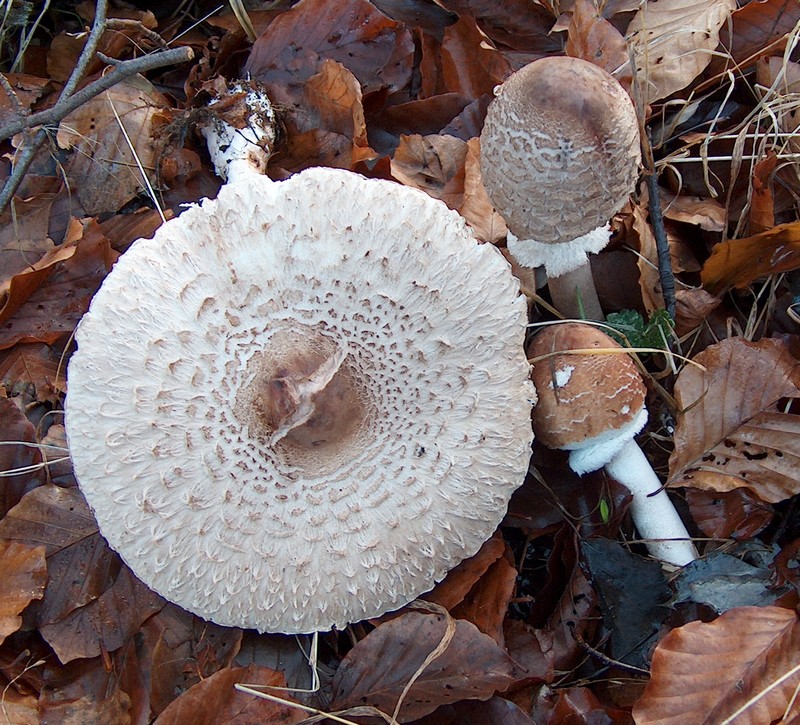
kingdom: Fungi
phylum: Basidiomycota
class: Agaricomycetes
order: Agaricales
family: Agaricaceae
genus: Macrolepiota
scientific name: Macrolepiota fuliginosa
